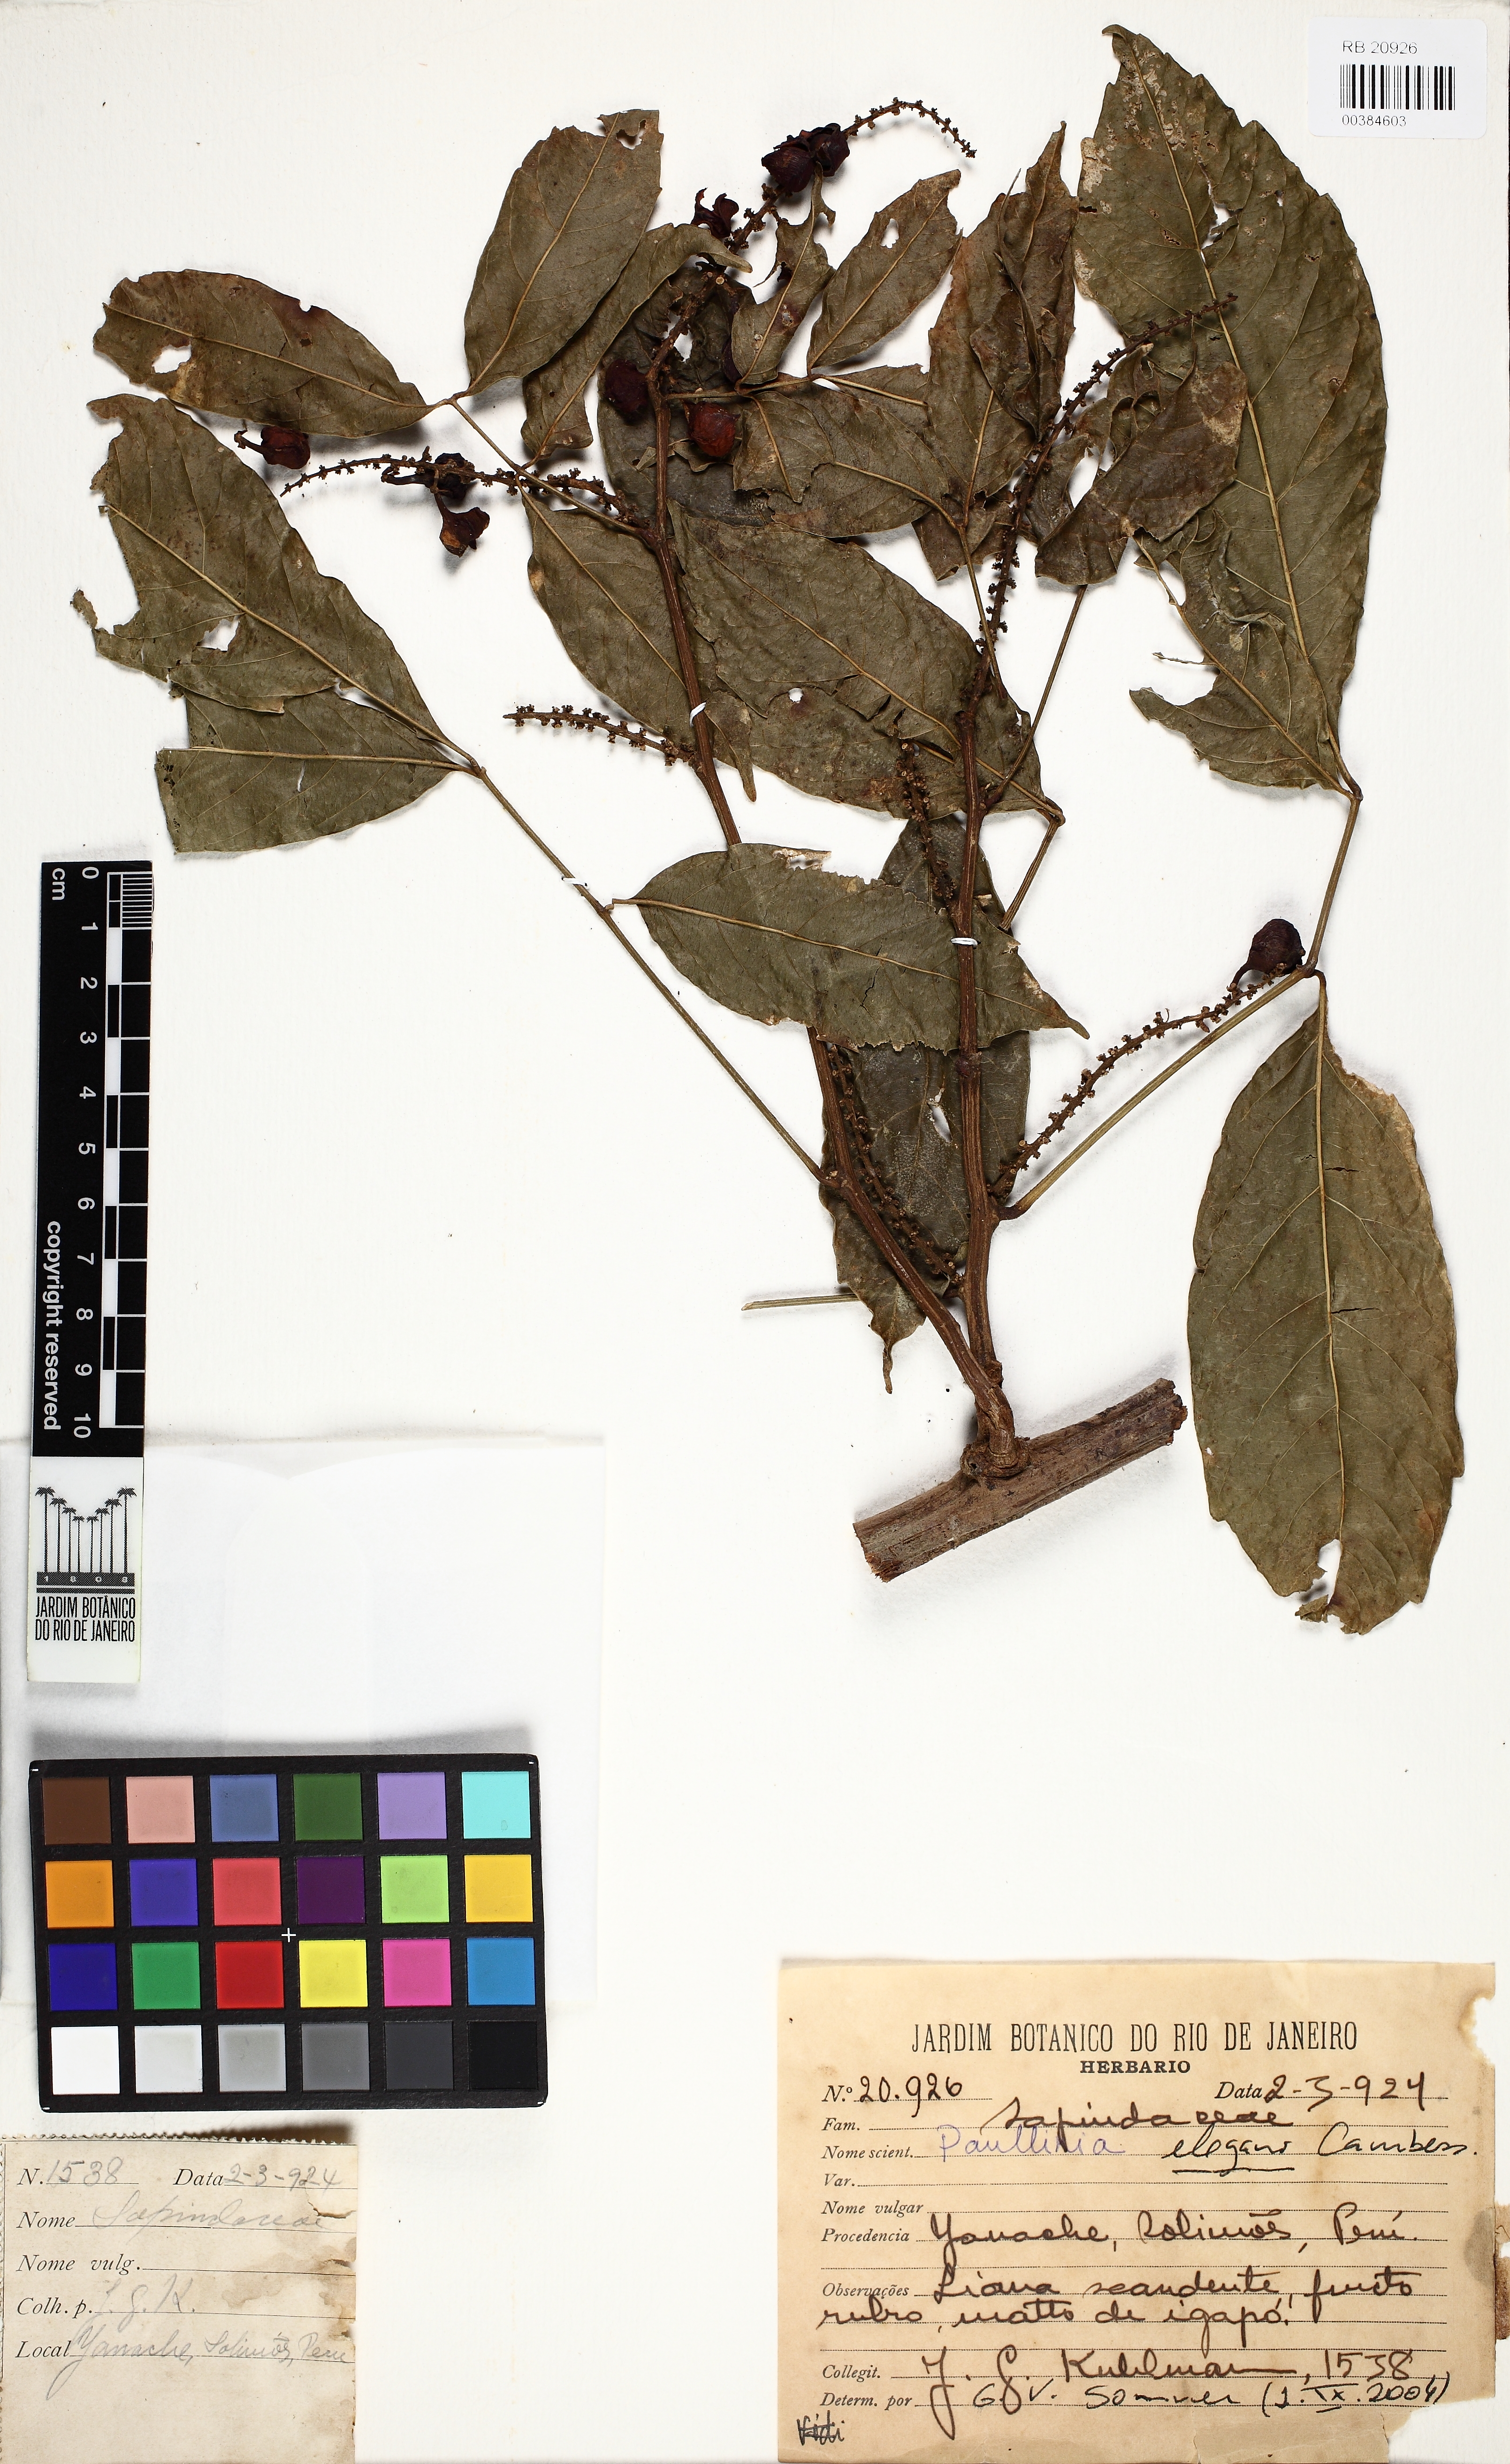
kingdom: Plantae
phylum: Tracheophyta
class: Magnoliopsida
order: Sapindales
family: Sapindaceae
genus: Paullinia
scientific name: Paullinia elegans
